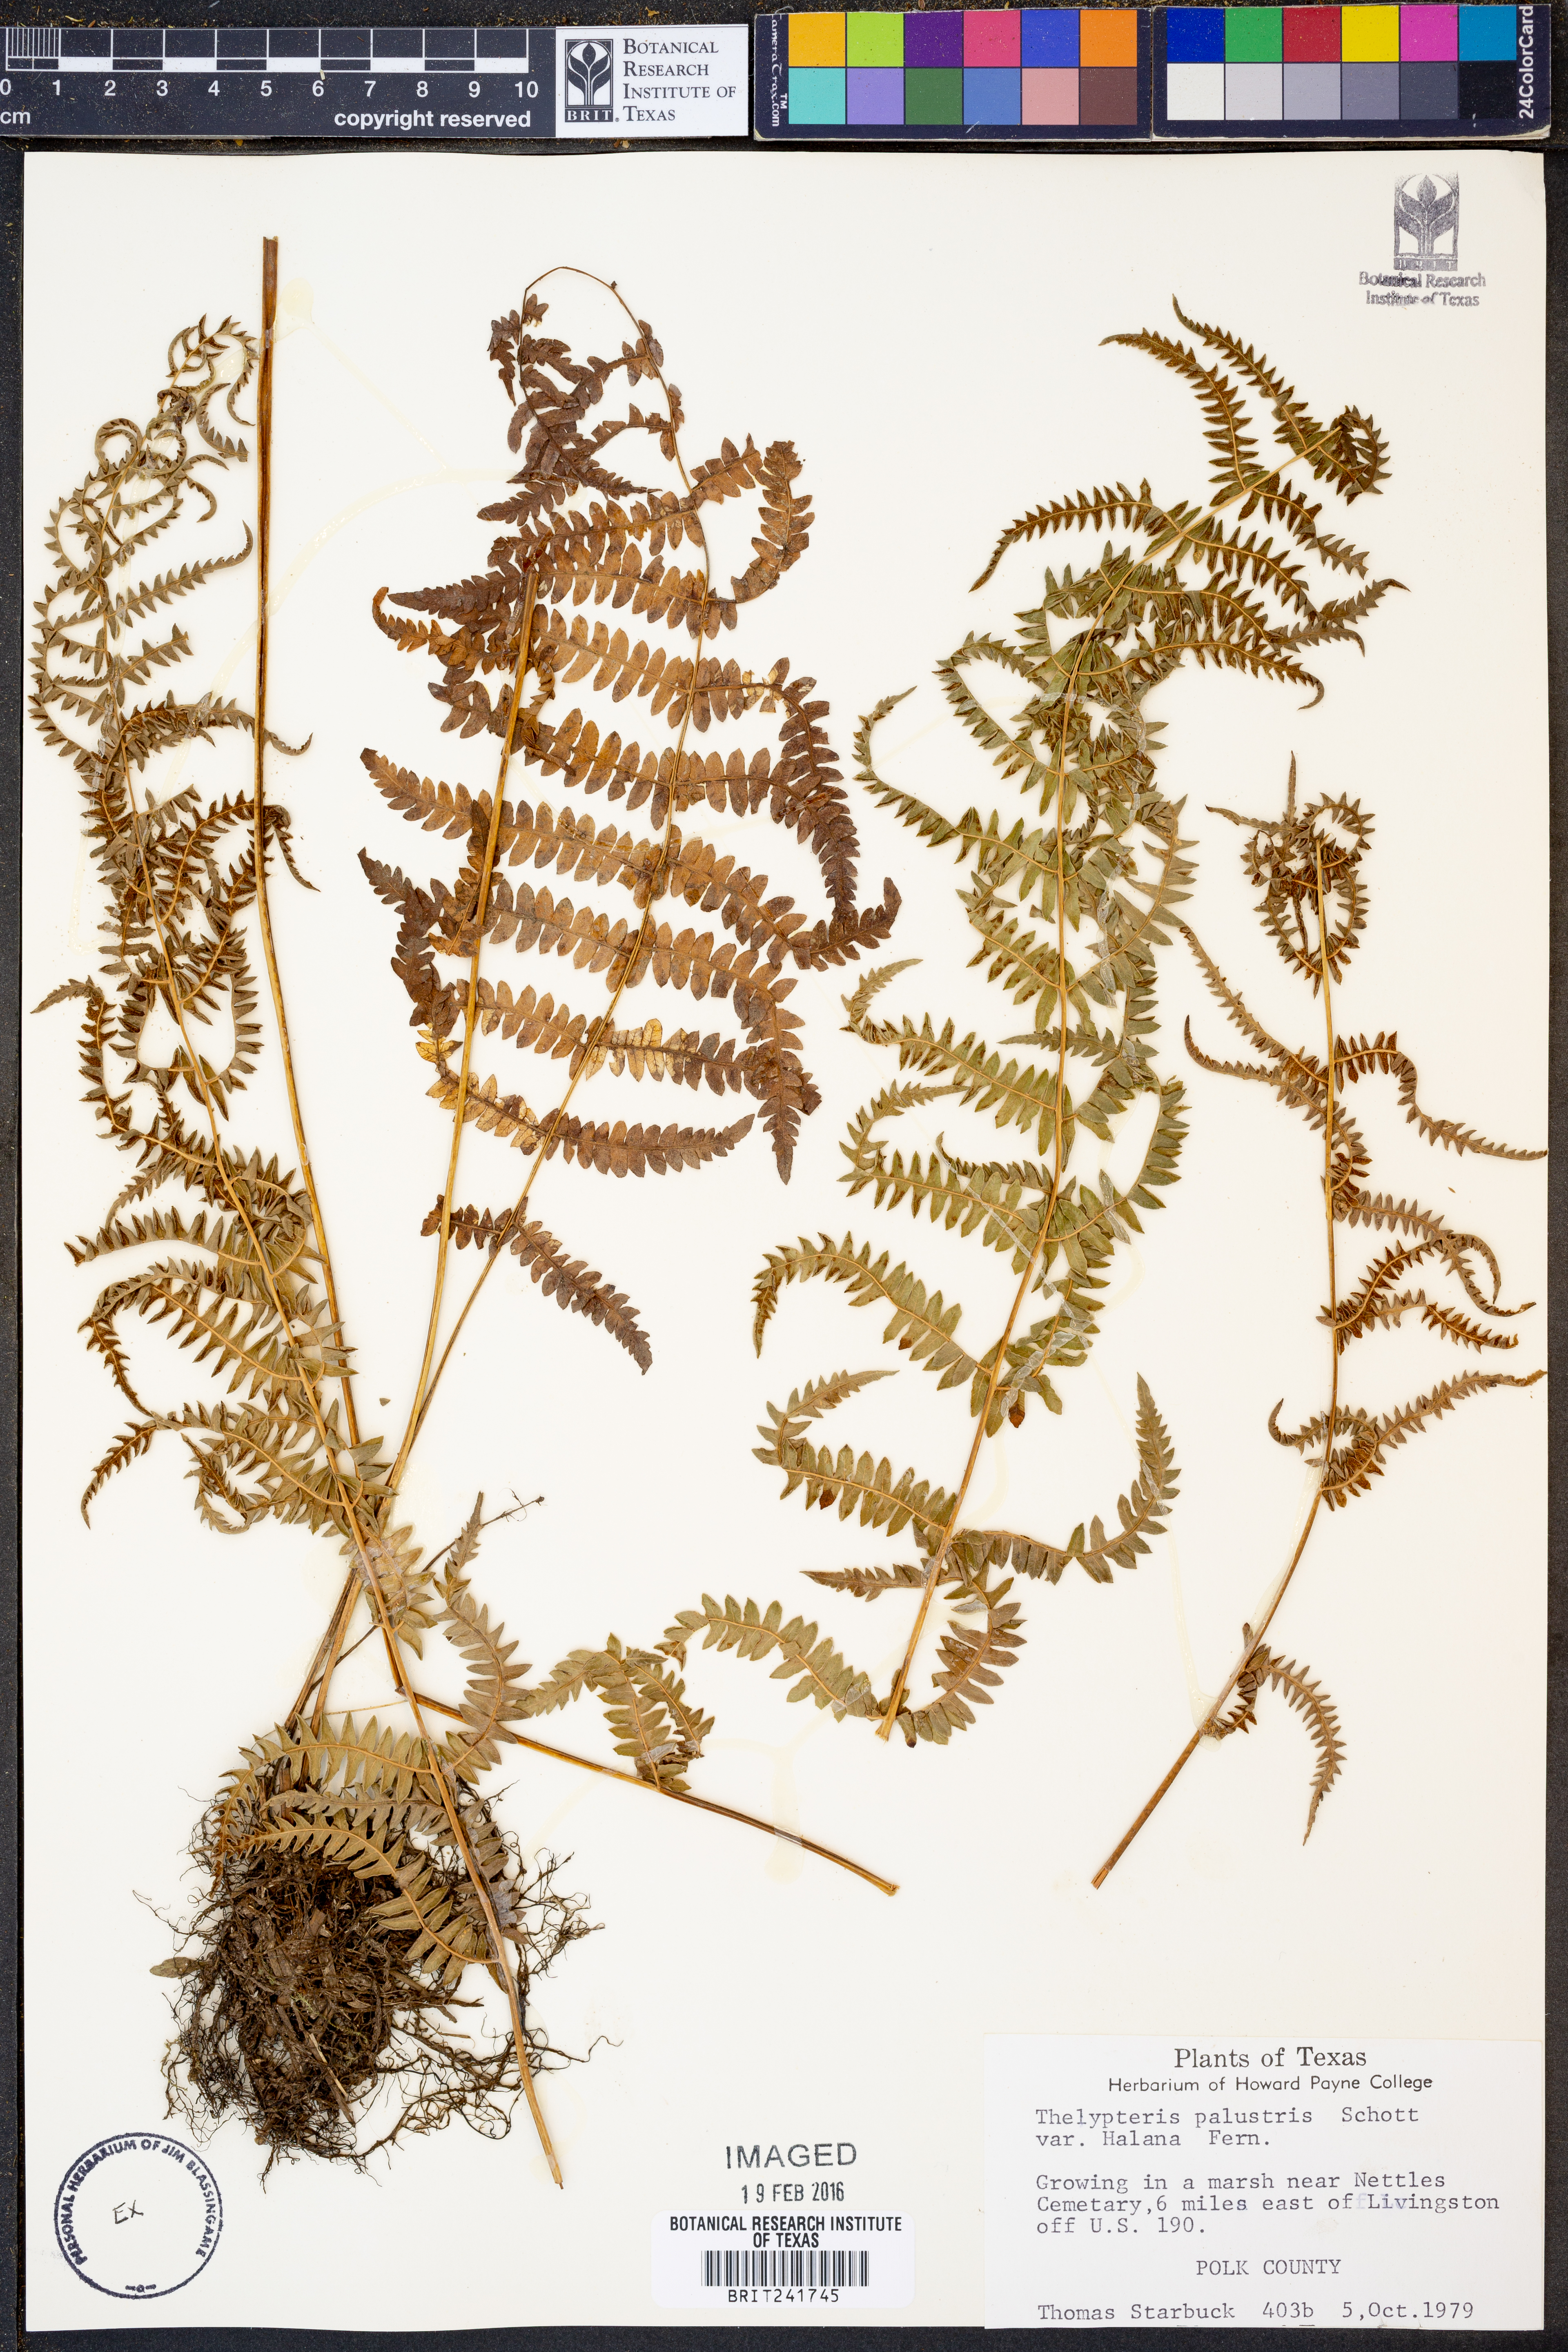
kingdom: Plantae
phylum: Tracheophyta
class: Polypodiopsida
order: Polypodiales
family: Thelypteridaceae
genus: Thelypteris
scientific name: Thelypteris palustris
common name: Marsh fern
